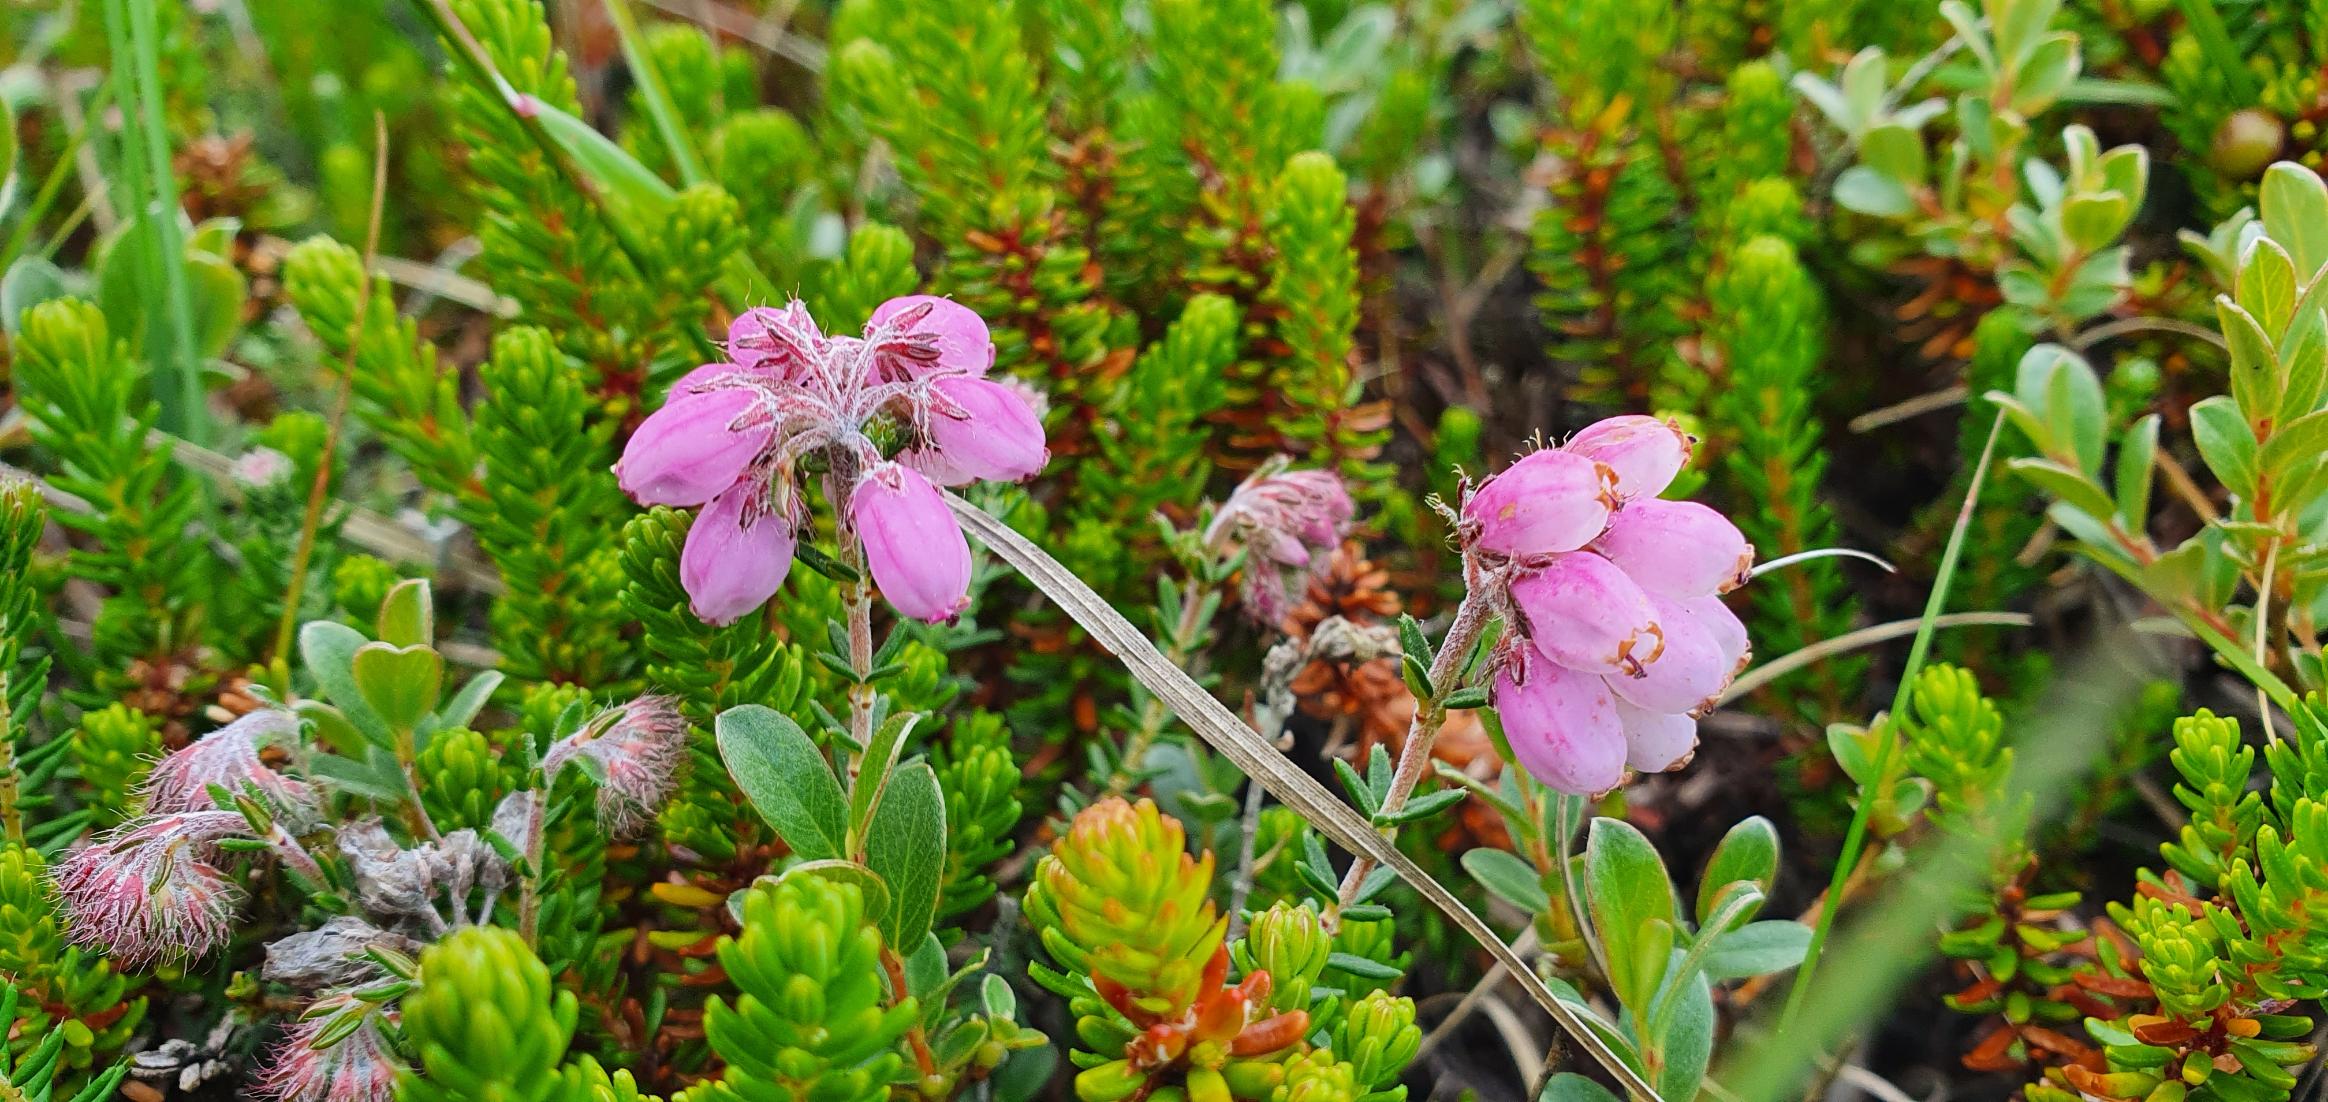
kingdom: Plantae
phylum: Tracheophyta
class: Magnoliopsida
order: Ericales
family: Ericaceae
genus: Erica
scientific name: Erica tetralix
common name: Klokkelyng
